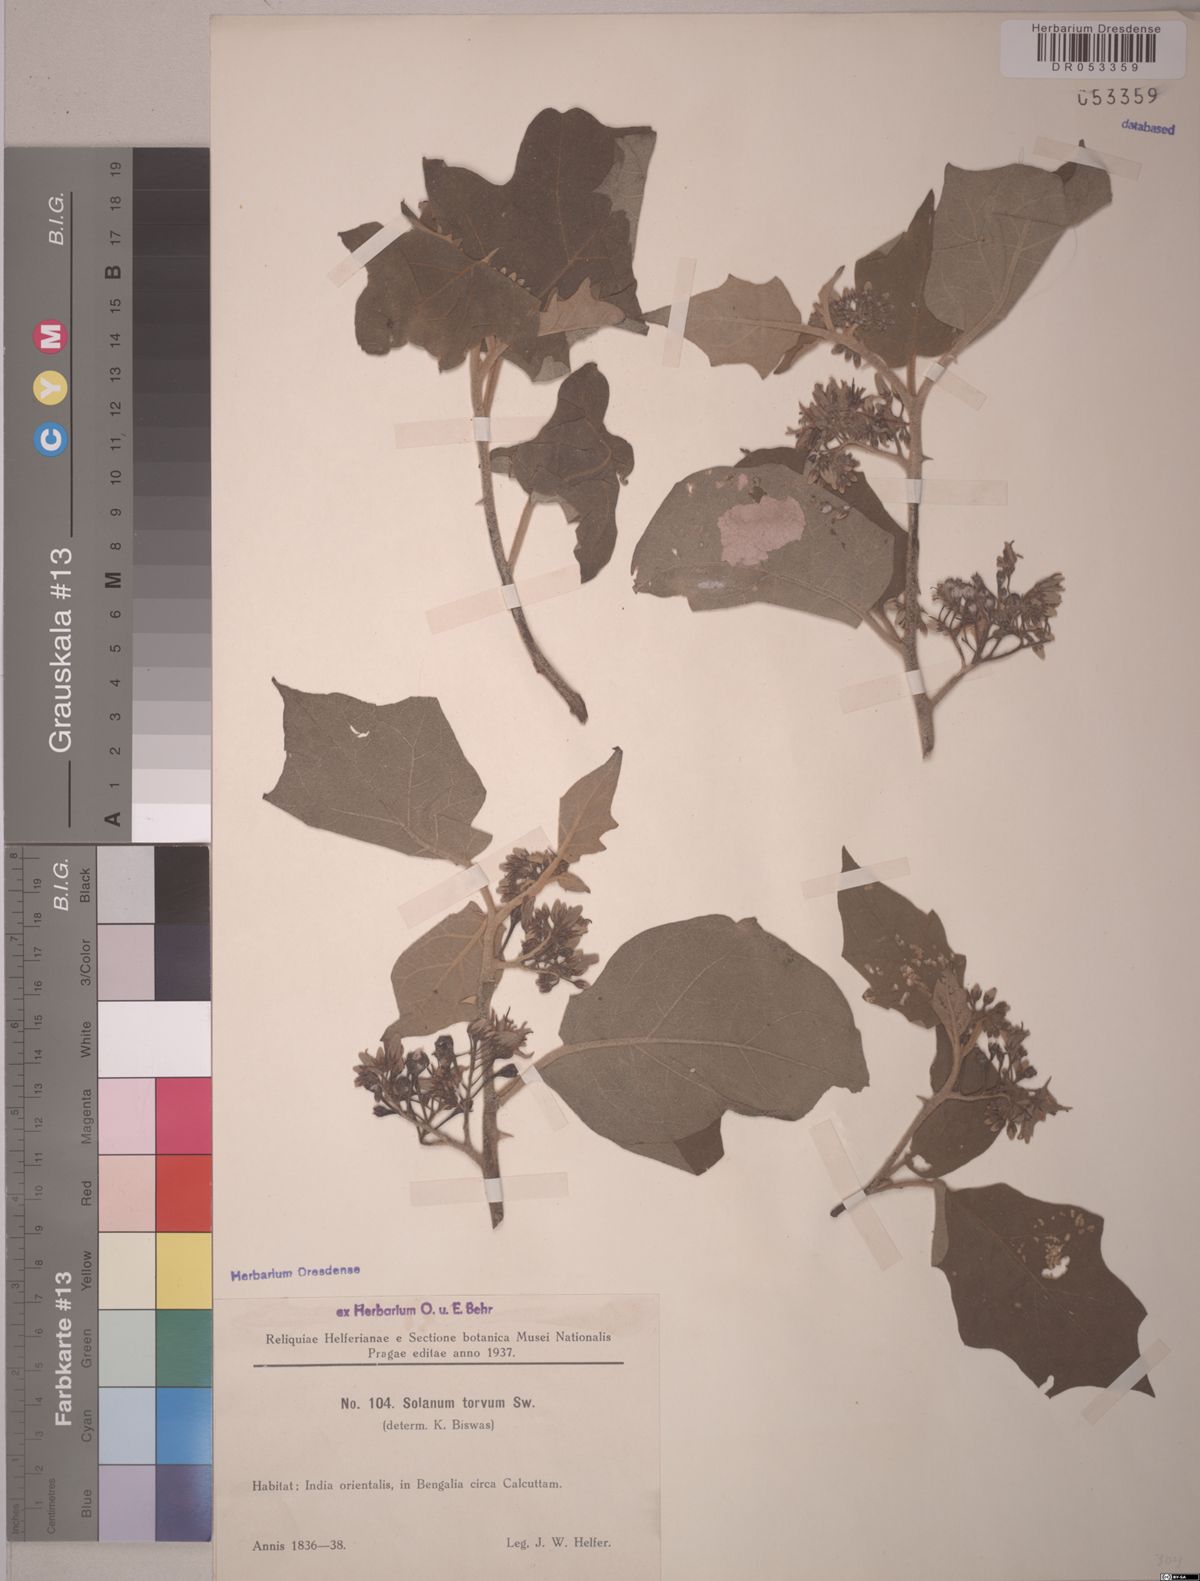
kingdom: Plantae
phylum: Tracheophyta
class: Magnoliopsida
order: Solanales
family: Solanaceae
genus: Solanum
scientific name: Solanum torvum
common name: Turkey berry
